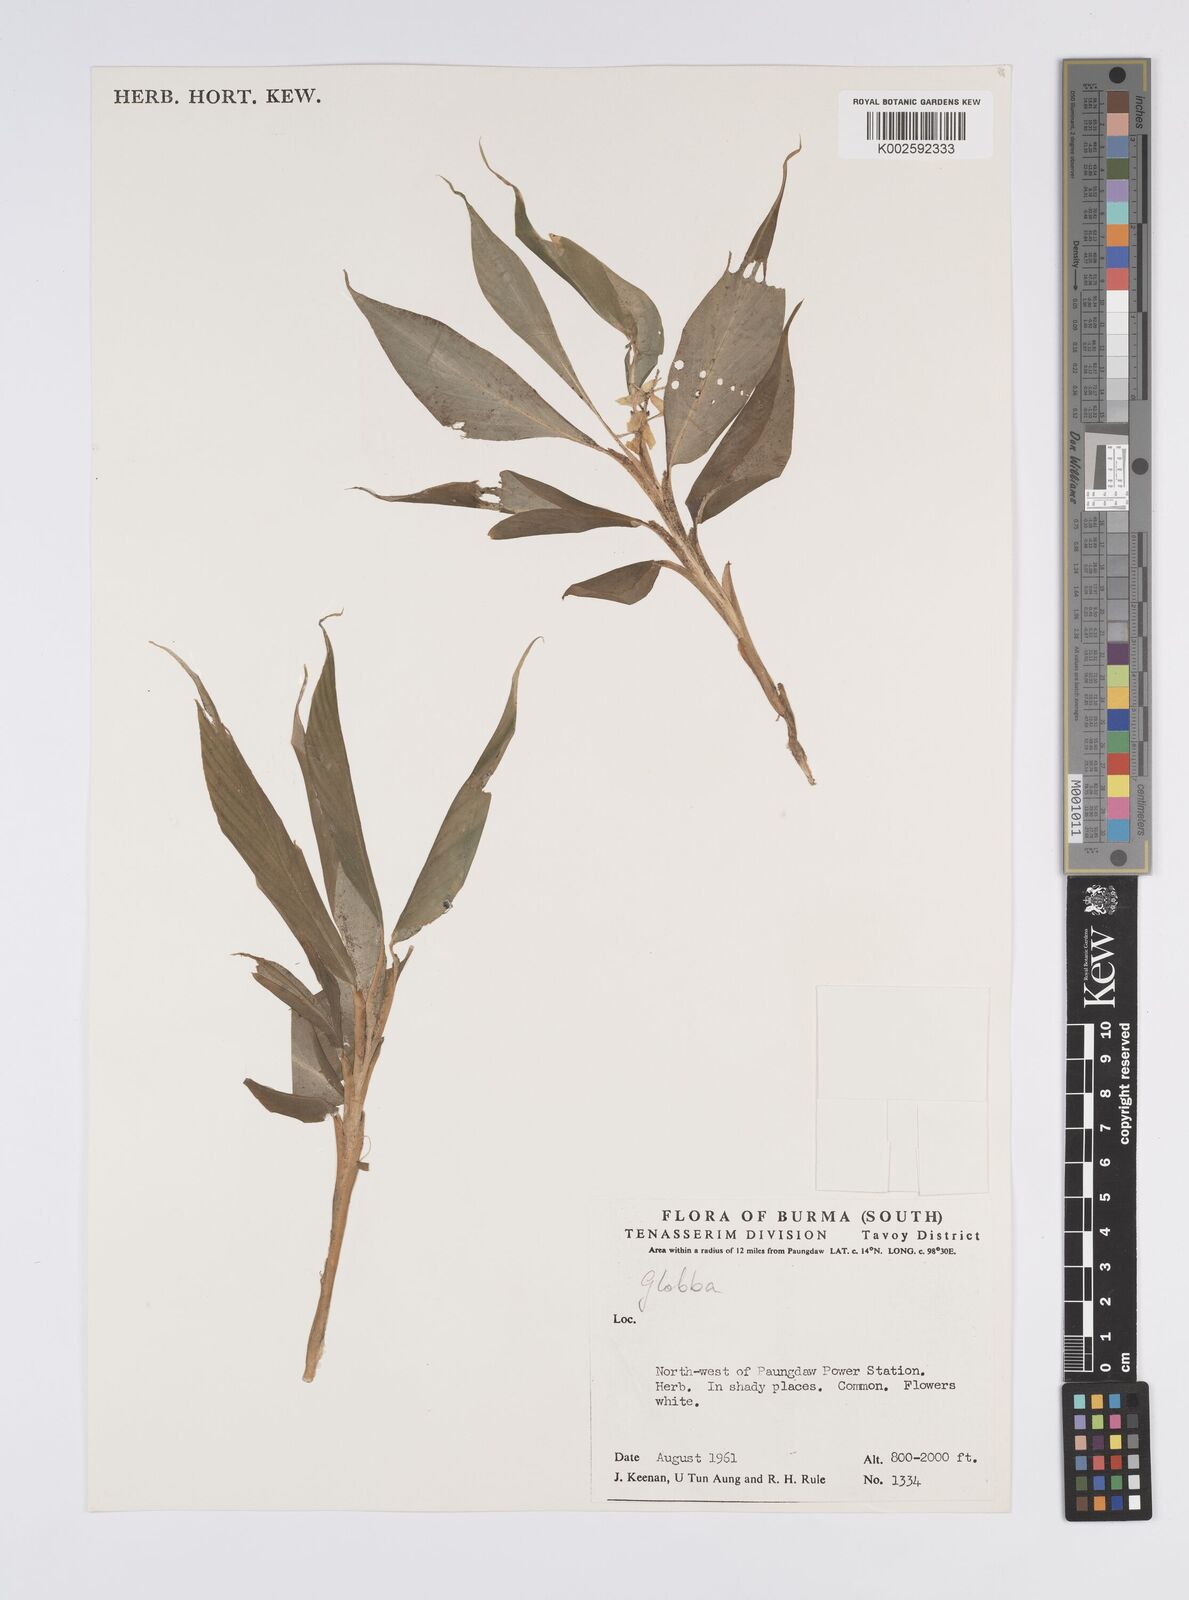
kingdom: Plantae
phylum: Tracheophyta
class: Liliopsida
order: Zingiberales
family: Zingiberaceae
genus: Globba
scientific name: Globba
